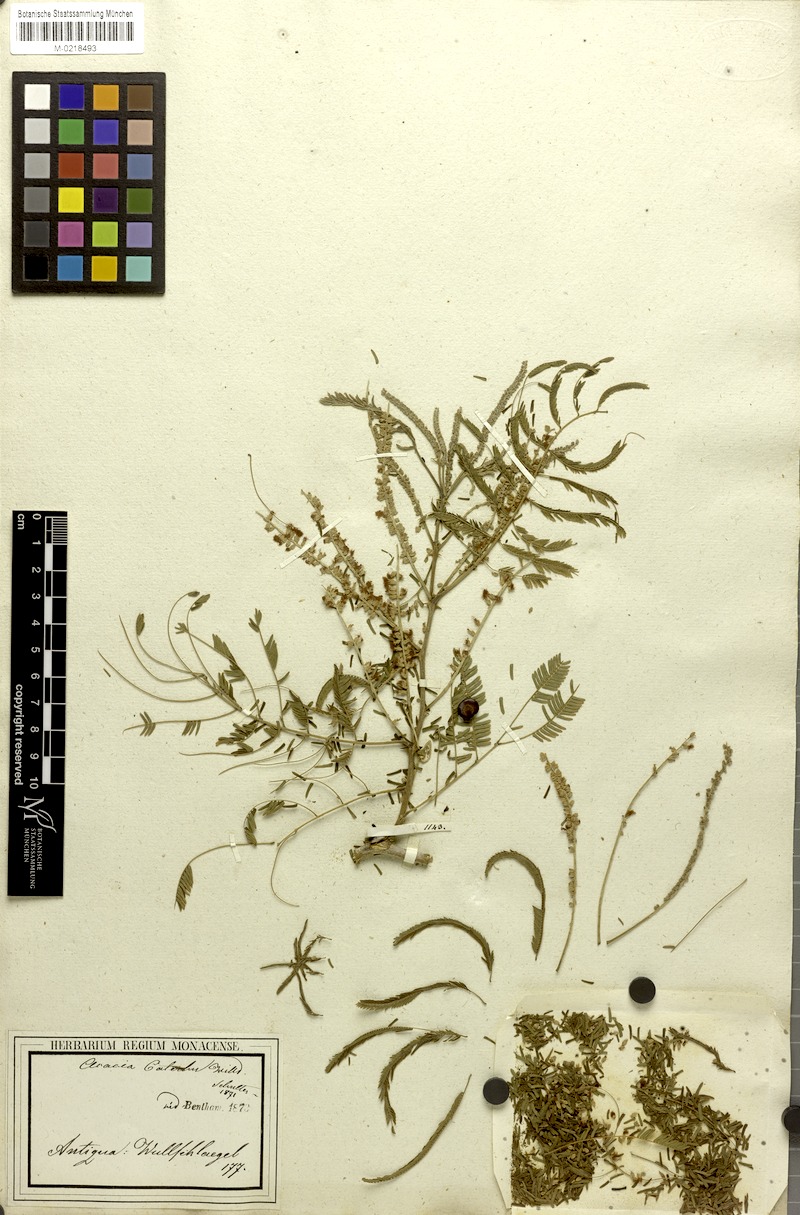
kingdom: Plantae
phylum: Tracheophyta
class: Magnoliopsida
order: Fabales
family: Fabaceae
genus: Senegalia
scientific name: Senegalia catechu
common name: Black cutch
